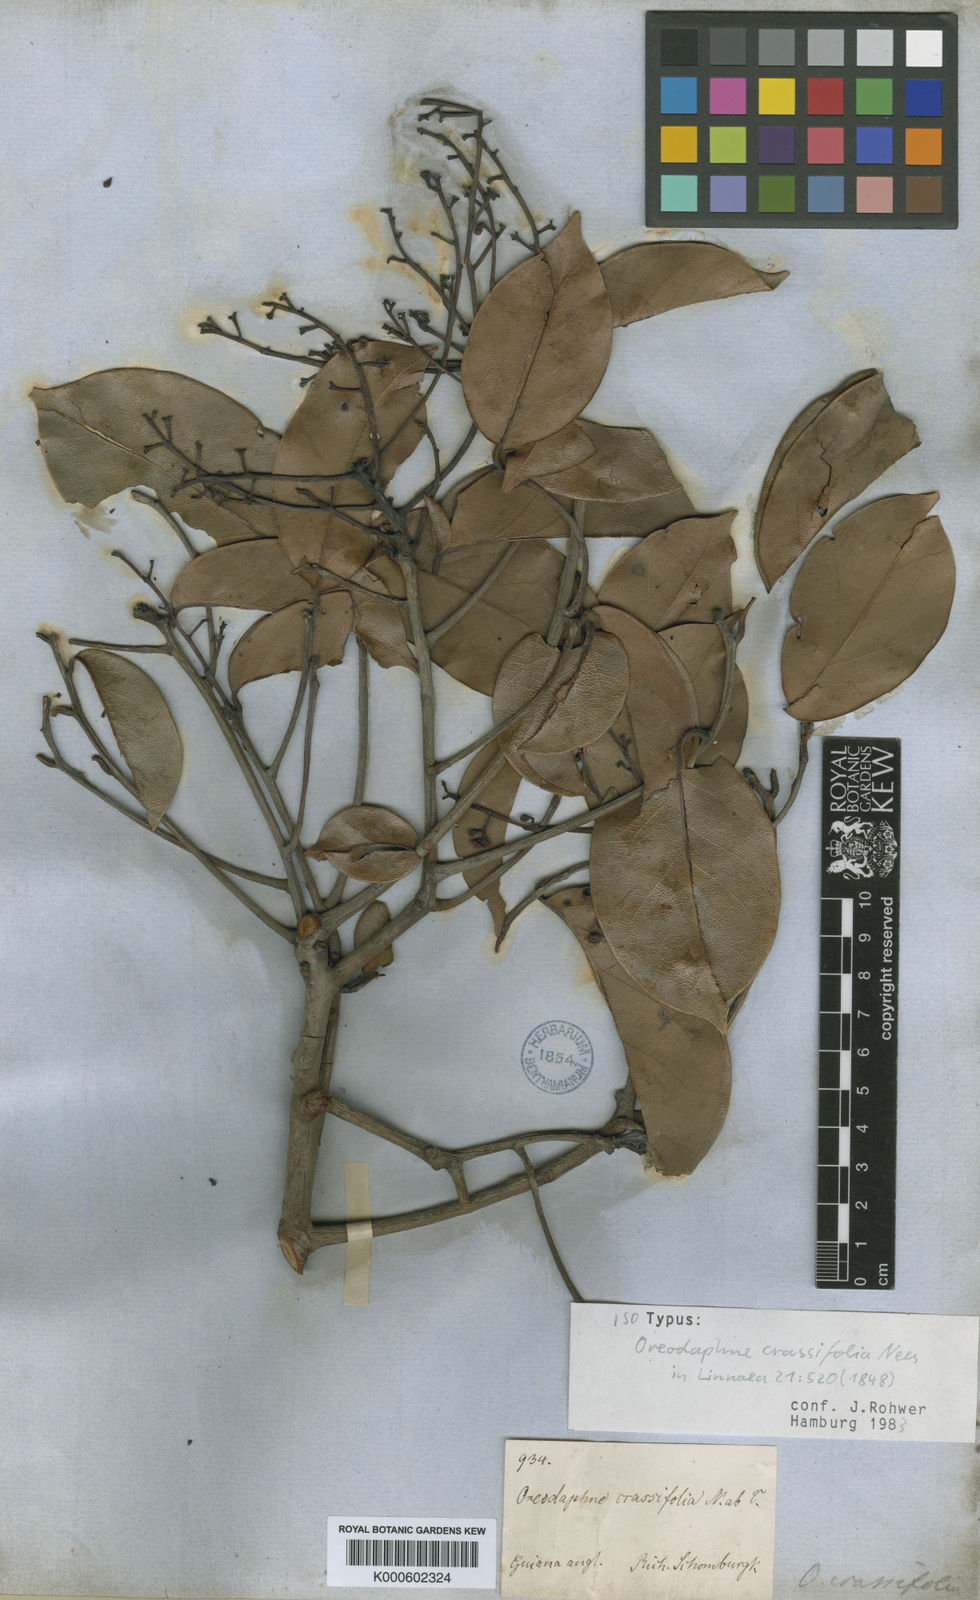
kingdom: Plantae
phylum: Tracheophyta
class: Magnoliopsida
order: Laurales
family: Lauraceae
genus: Ocotea
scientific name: Ocotea crassifolia
